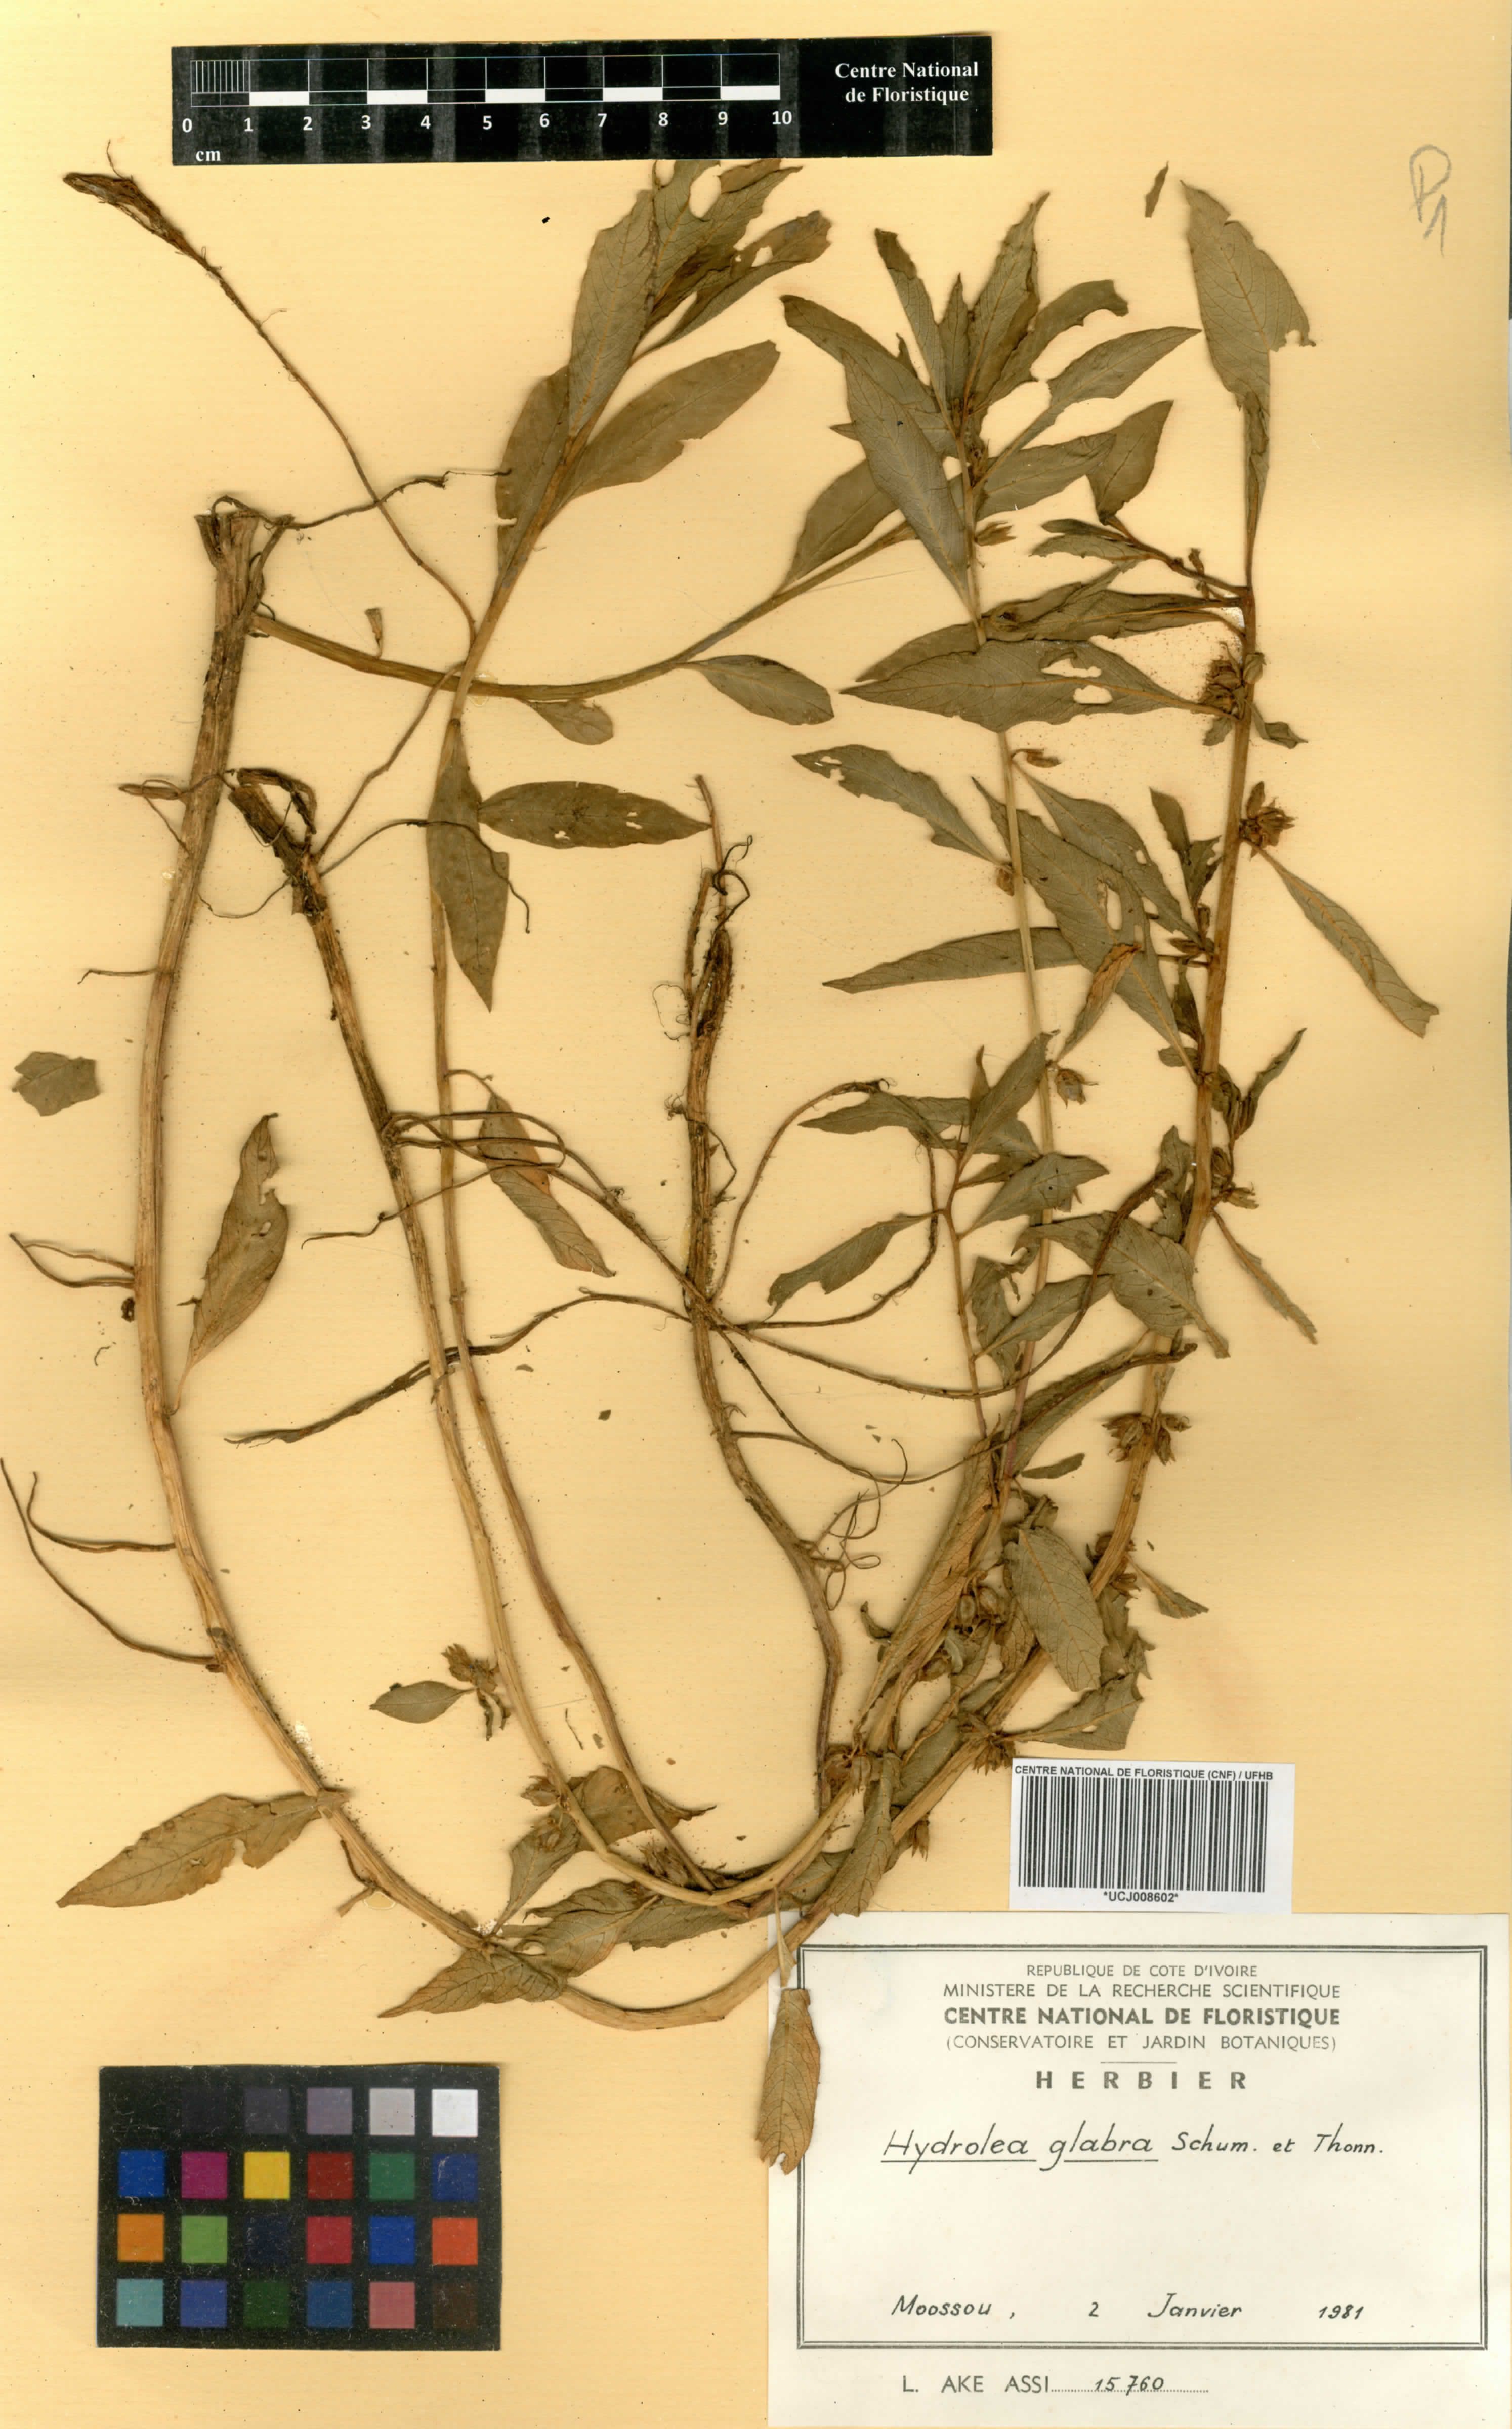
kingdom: Plantae
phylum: Tracheophyta
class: Magnoliopsida
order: Solanales
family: Hydroleaceae
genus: Hydrolea
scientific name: Hydrolea palustris
